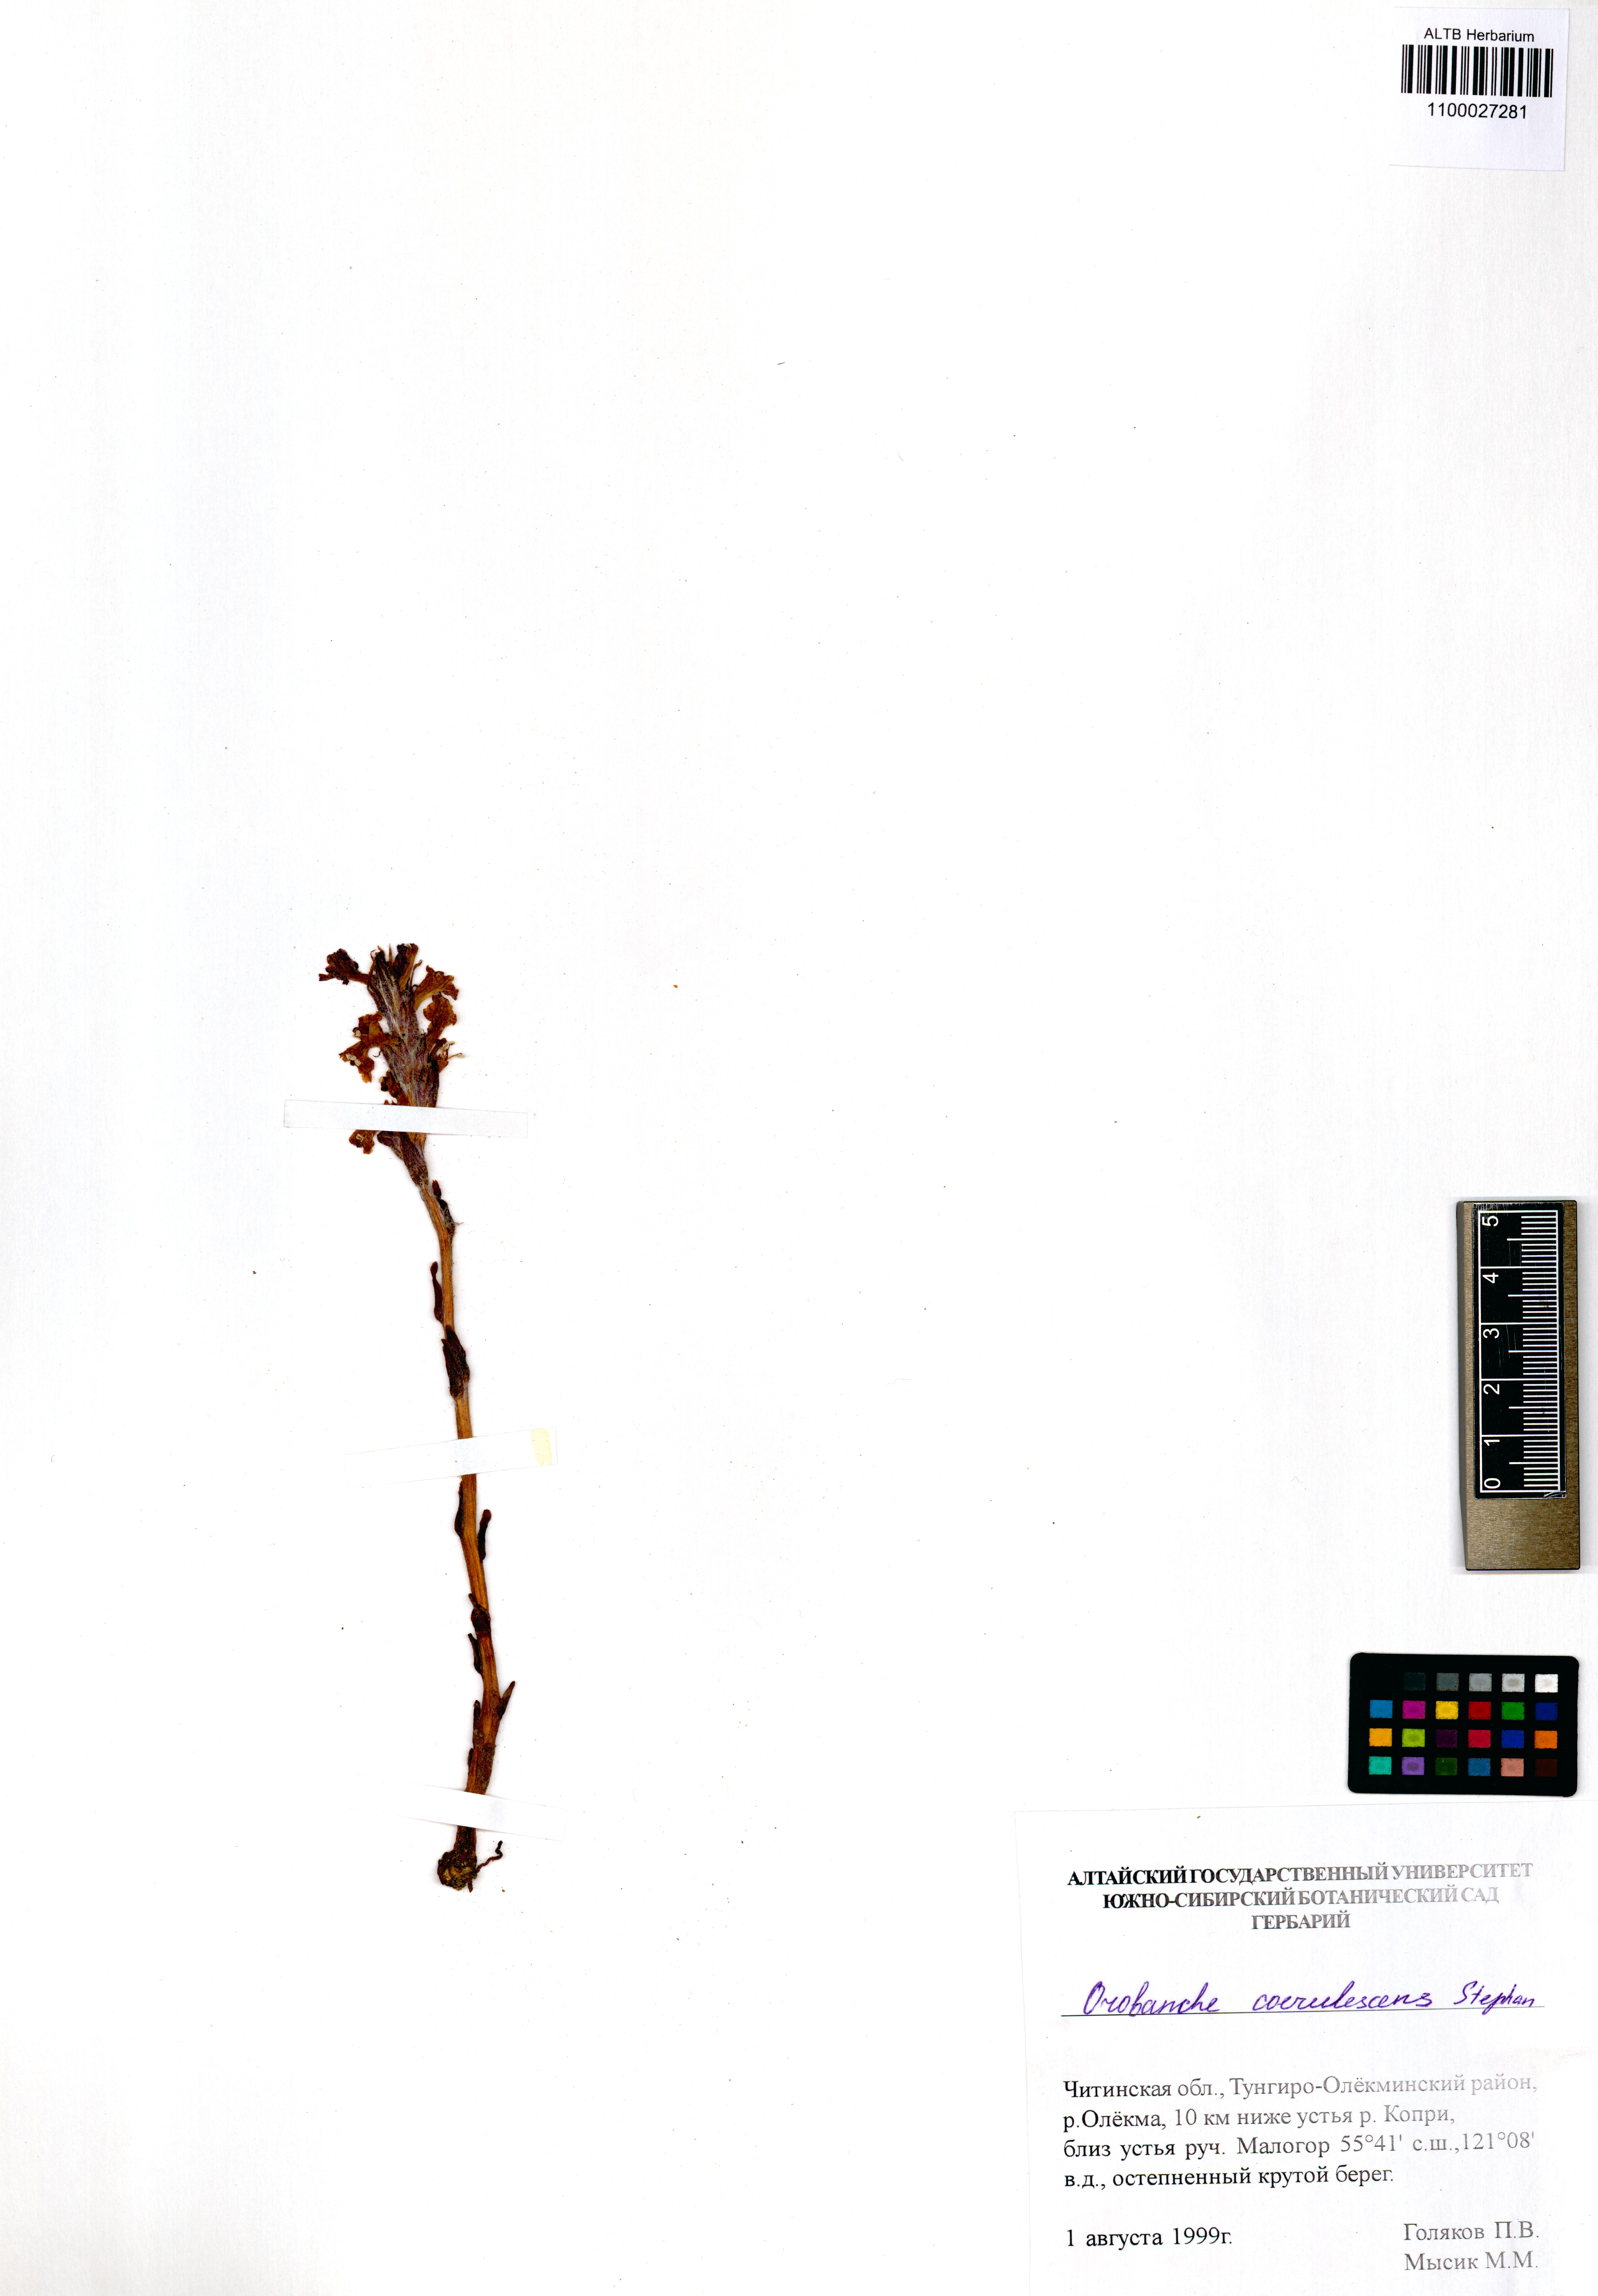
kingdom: Plantae
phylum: Tracheophyta
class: Magnoliopsida
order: Lamiales
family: Orobanchaceae
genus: Orobanche
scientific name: Orobanche coerulescens
